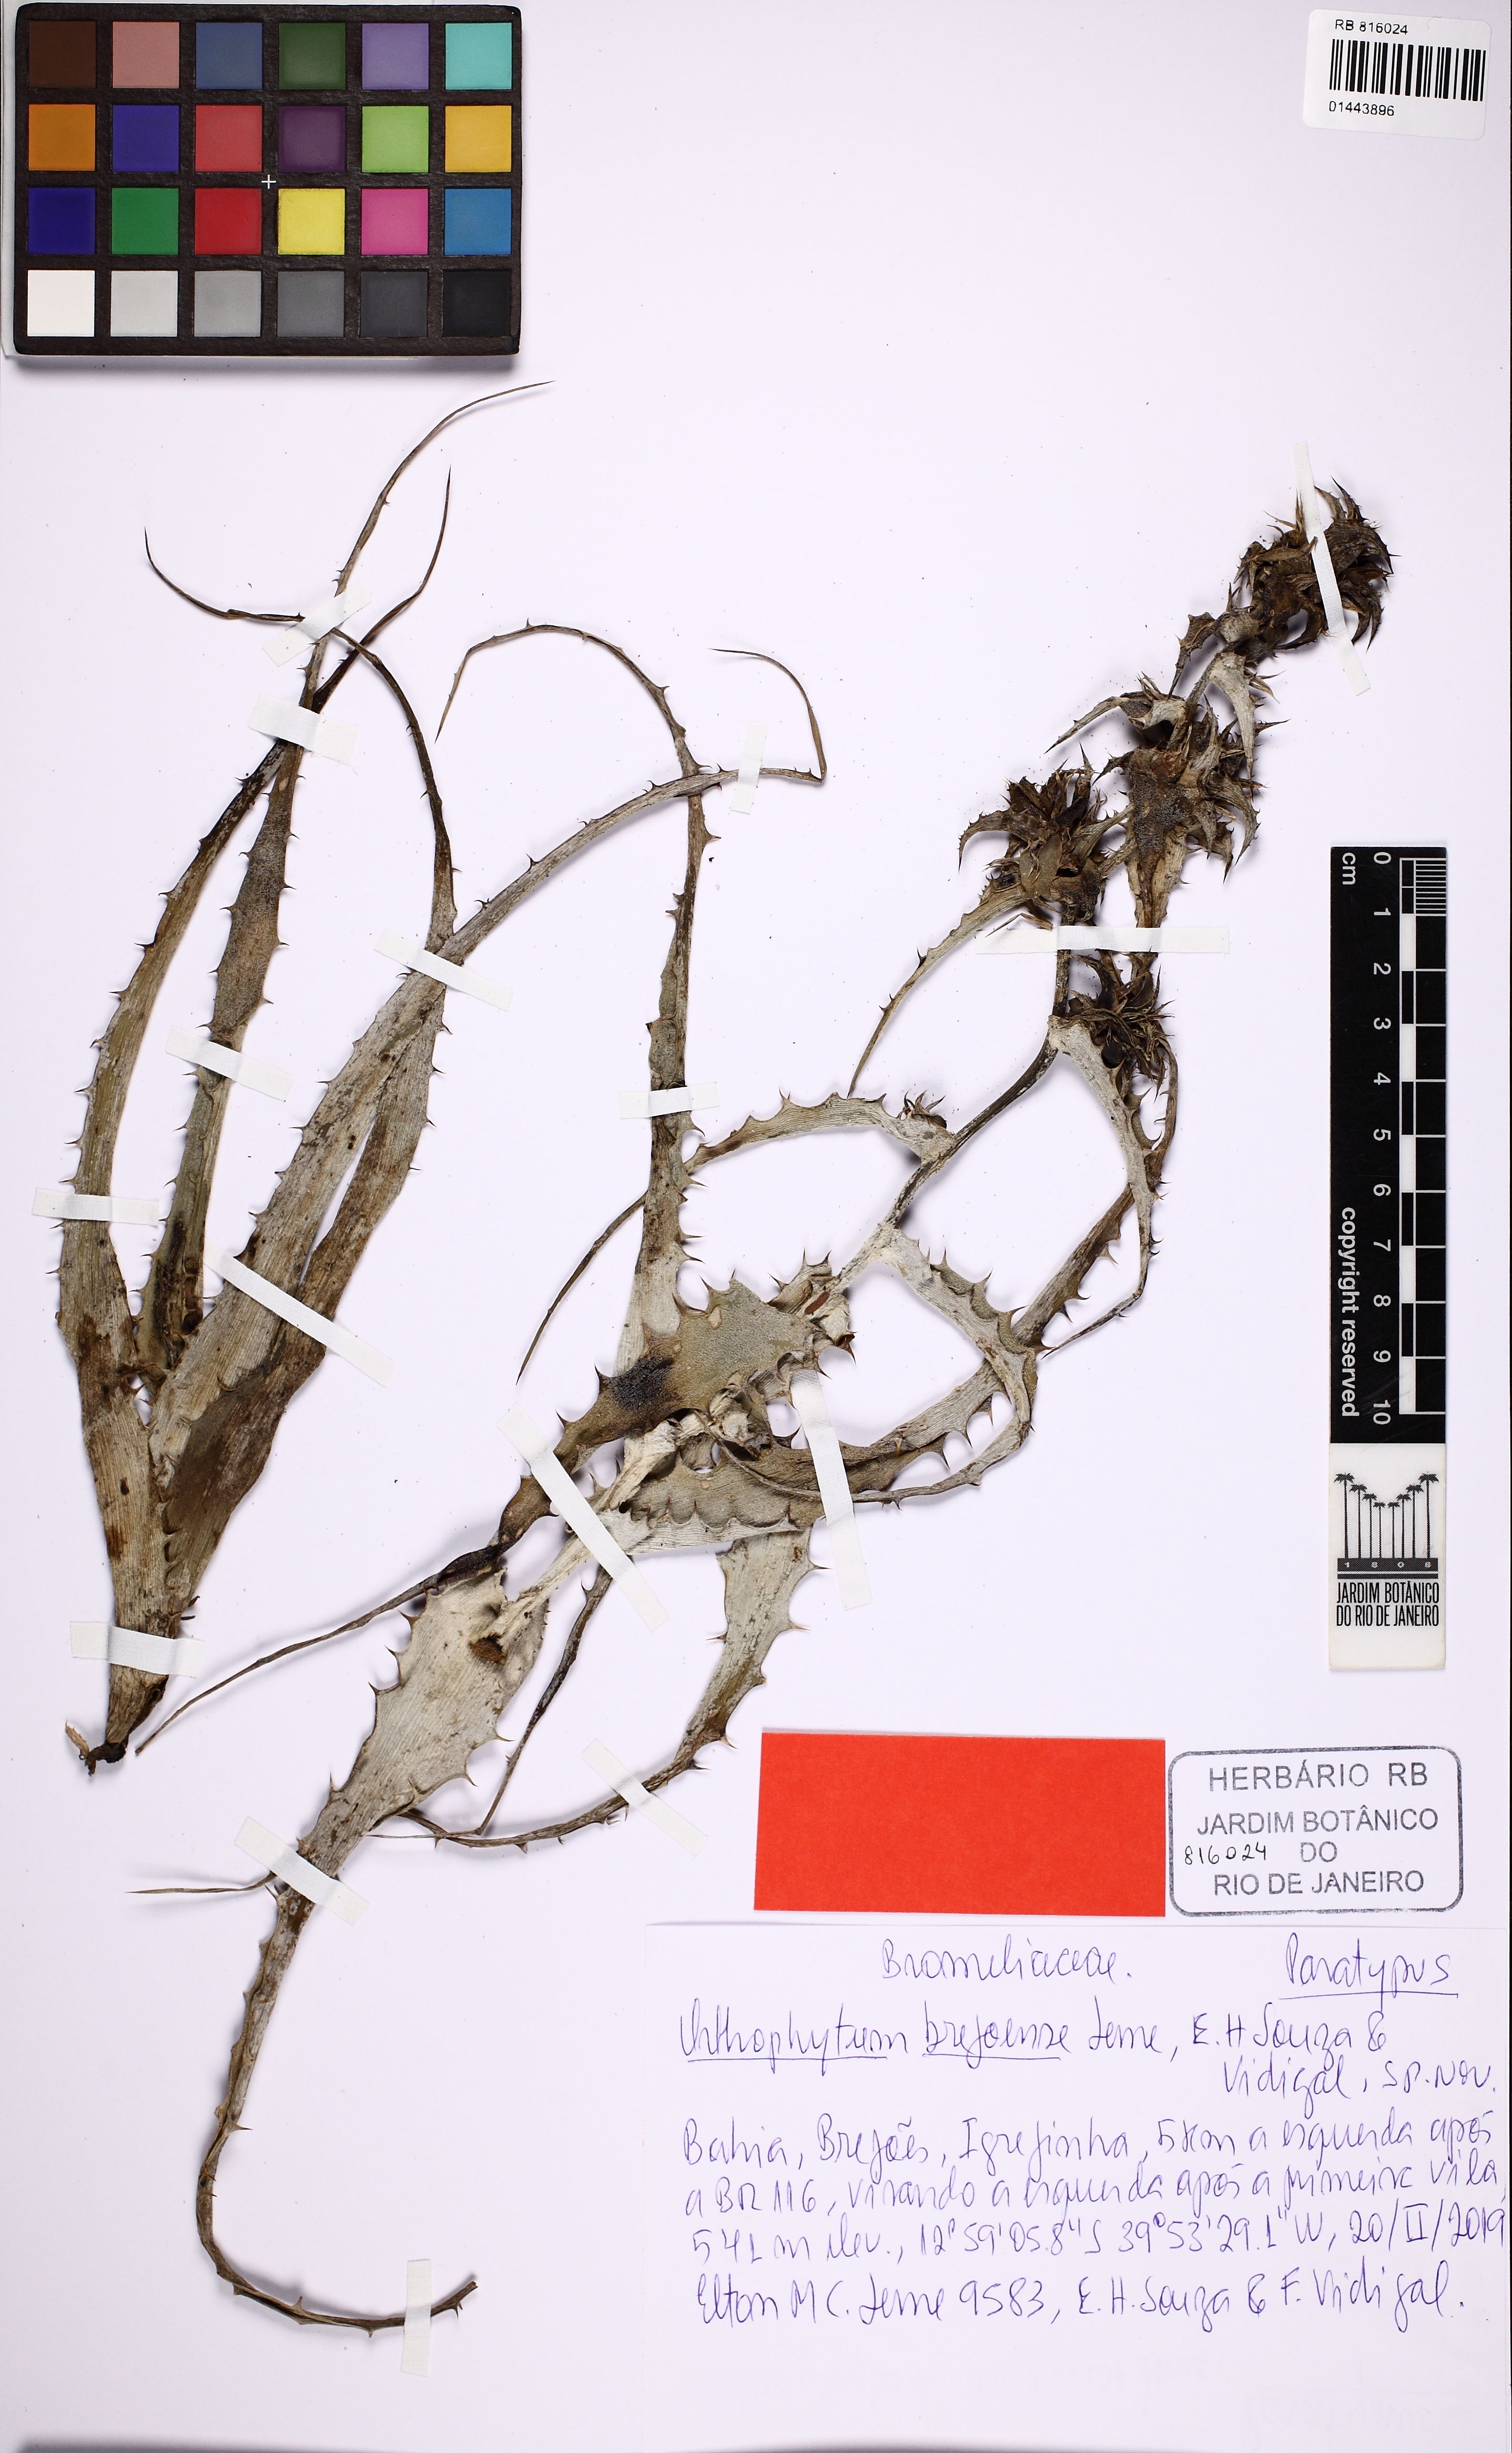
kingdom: Plantae
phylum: Tracheophyta
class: Liliopsida
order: Poales
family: Bromeliaceae
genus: Orthophytum
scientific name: Orthophytum brejoense
